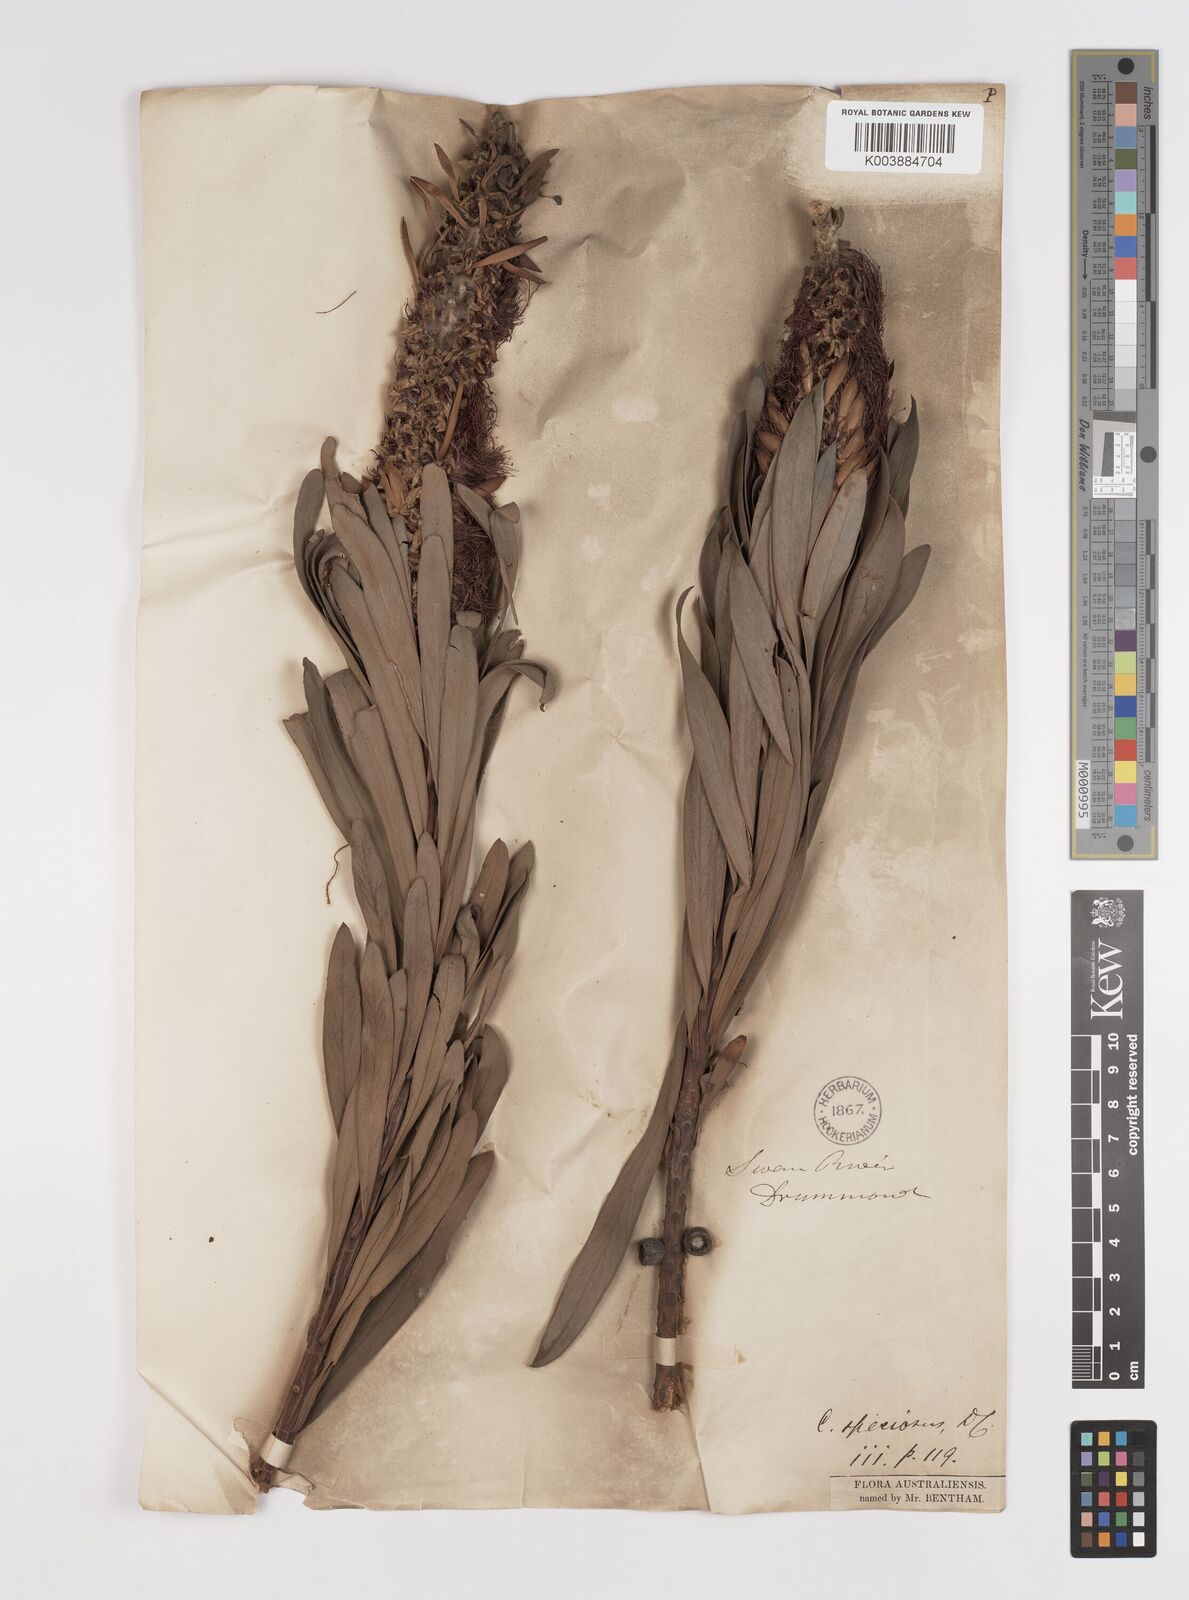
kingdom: Plantae
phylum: Tracheophyta
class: Magnoliopsida
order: Myrtales
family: Myrtaceae
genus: Callistemon
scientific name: Callistemon speciosus
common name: Albany bottlebrush
